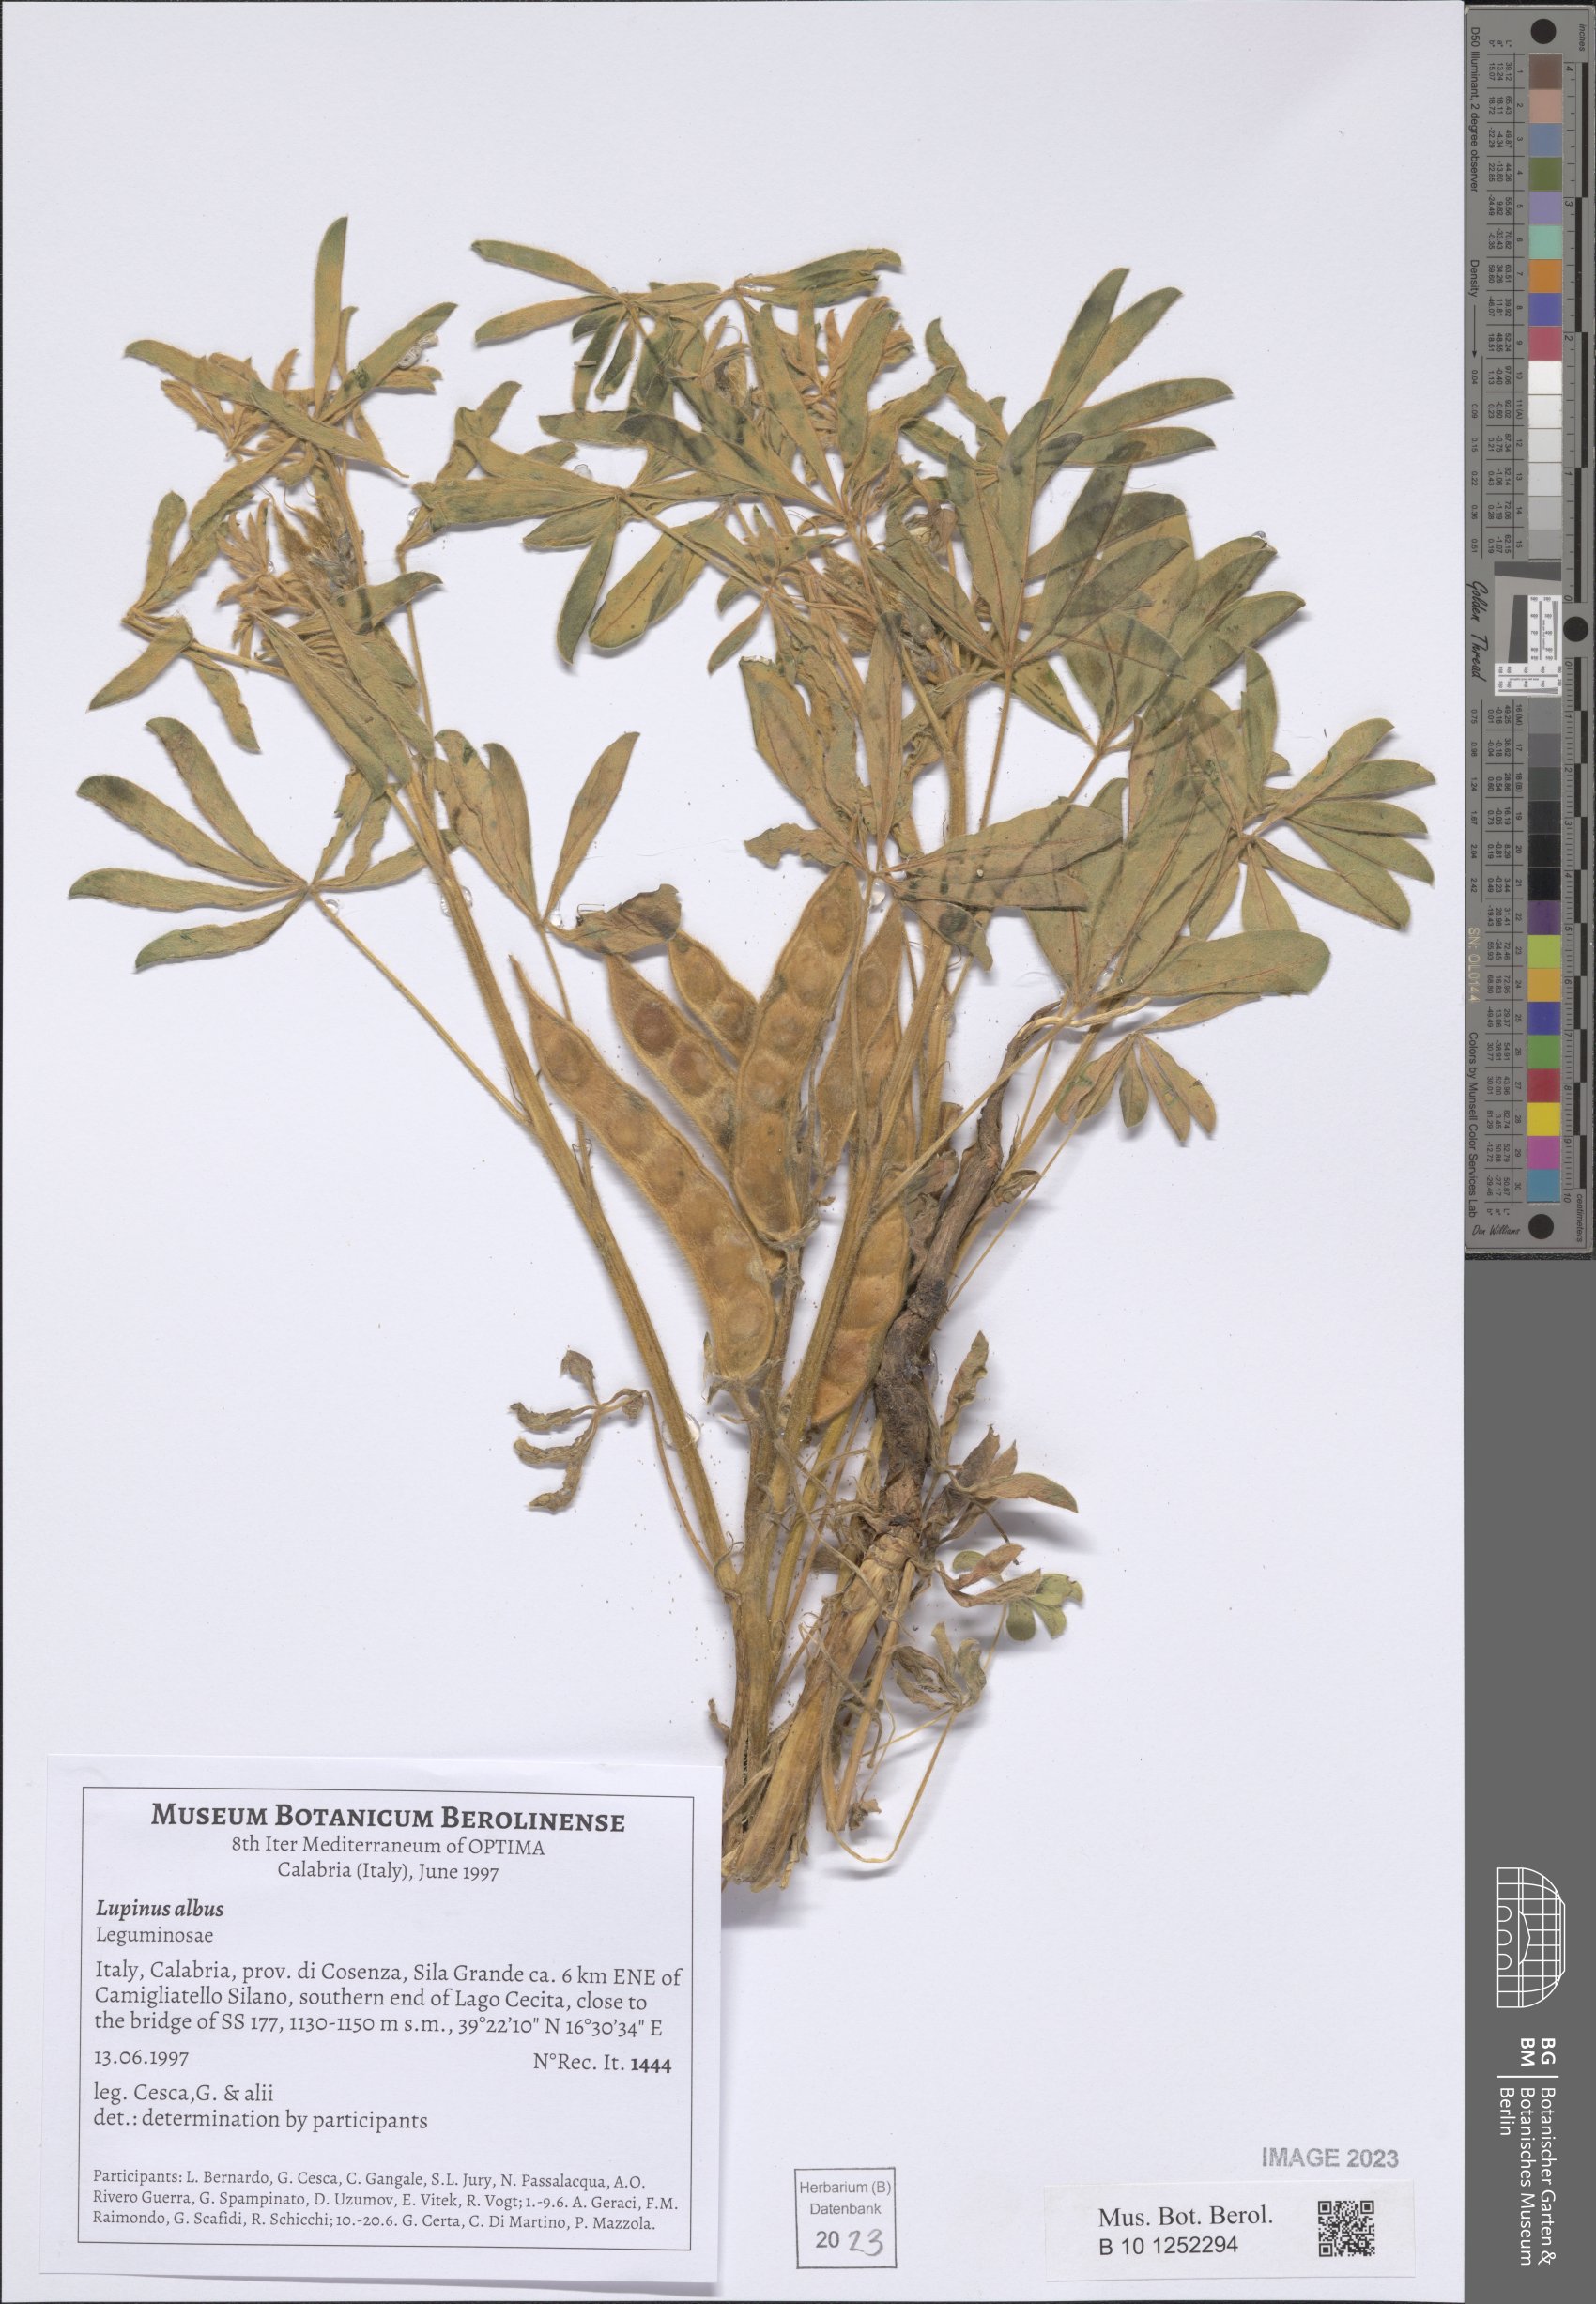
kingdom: Plantae
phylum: Tracheophyta
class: Magnoliopsida
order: Fabales
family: Fabaceae
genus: Lupinus
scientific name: Lupinus albus
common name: White lupin
